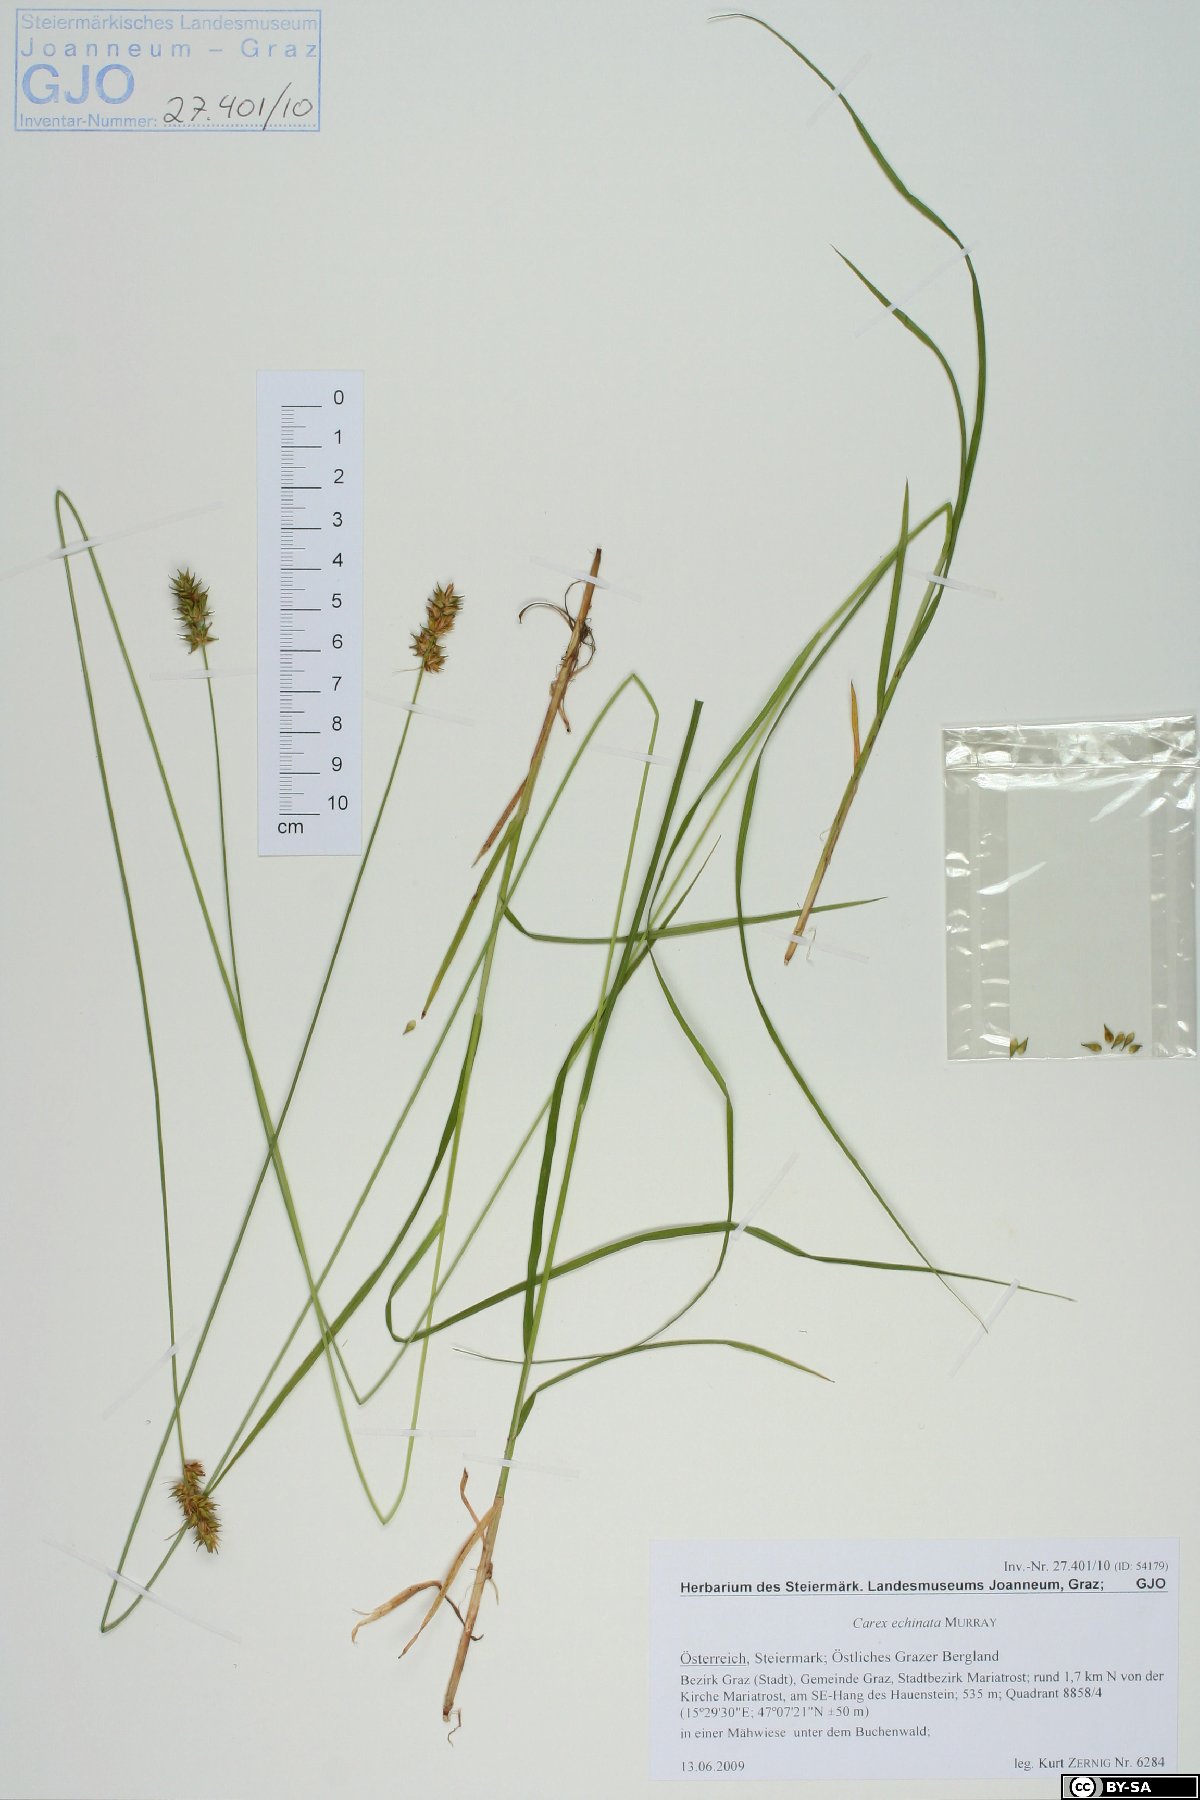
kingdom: Plantae
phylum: Tracheophyta
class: Liliopsida
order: Poales
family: Cyperaceae
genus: Carex
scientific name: Carex echinata
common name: Star sedge
